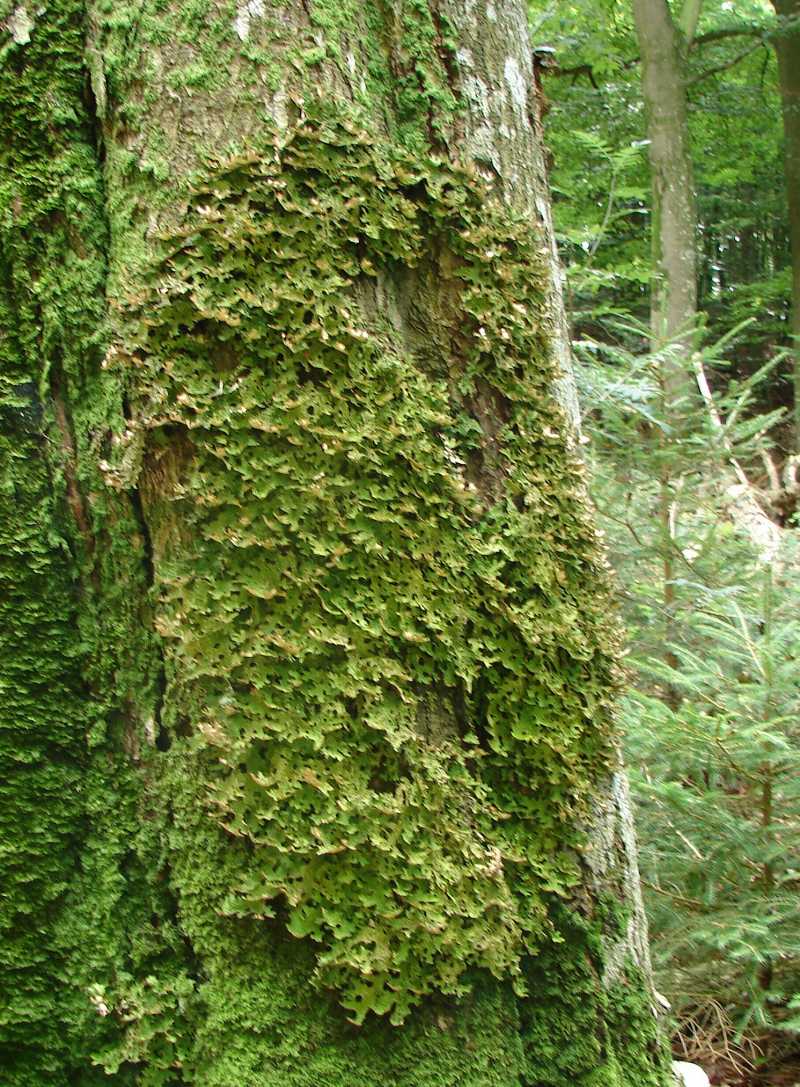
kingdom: Fungi
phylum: Ascomycota
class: Lecanoromycetes
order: Peltigerales
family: Lobariaceae
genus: Lobaria
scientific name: Lobaria pulmonaria
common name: almindelig lungelav
